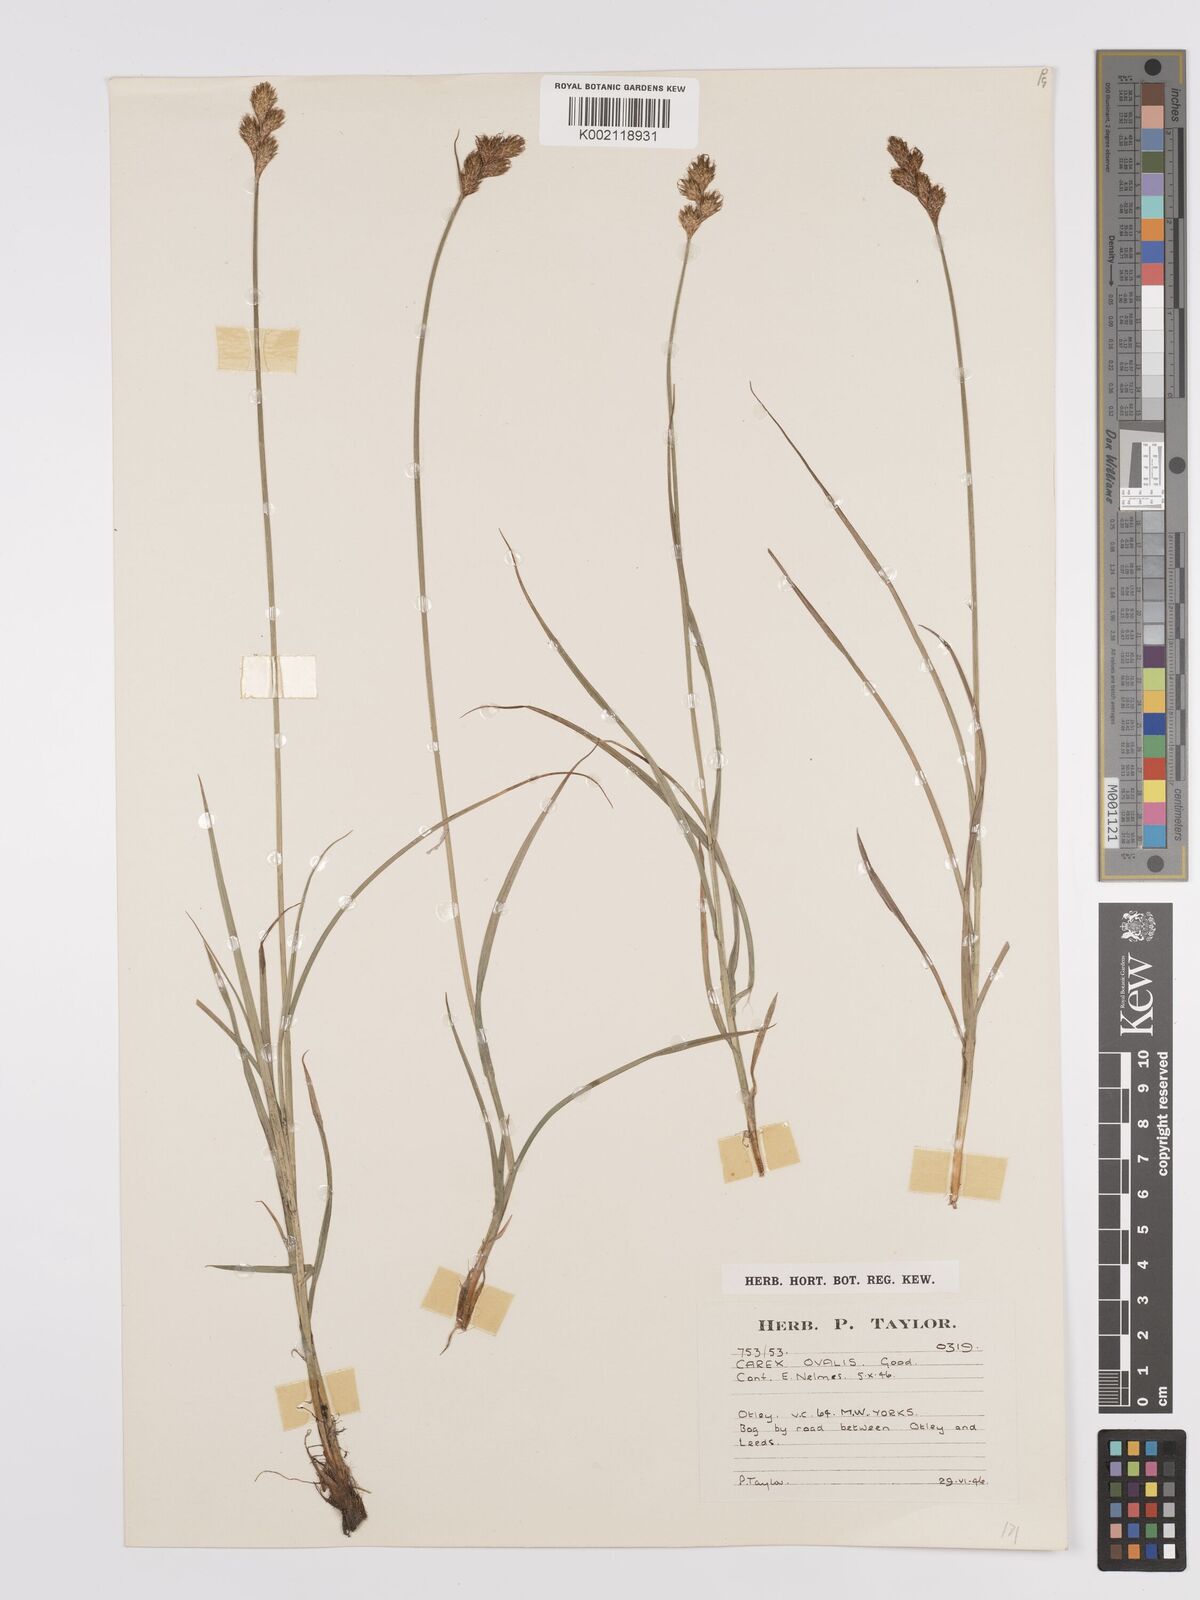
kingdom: Plantae
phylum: Tracheophyta
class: Liliopsida
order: Poales
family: Cyperaceae
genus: Carex
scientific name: Carex leporina
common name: Oval sedge
